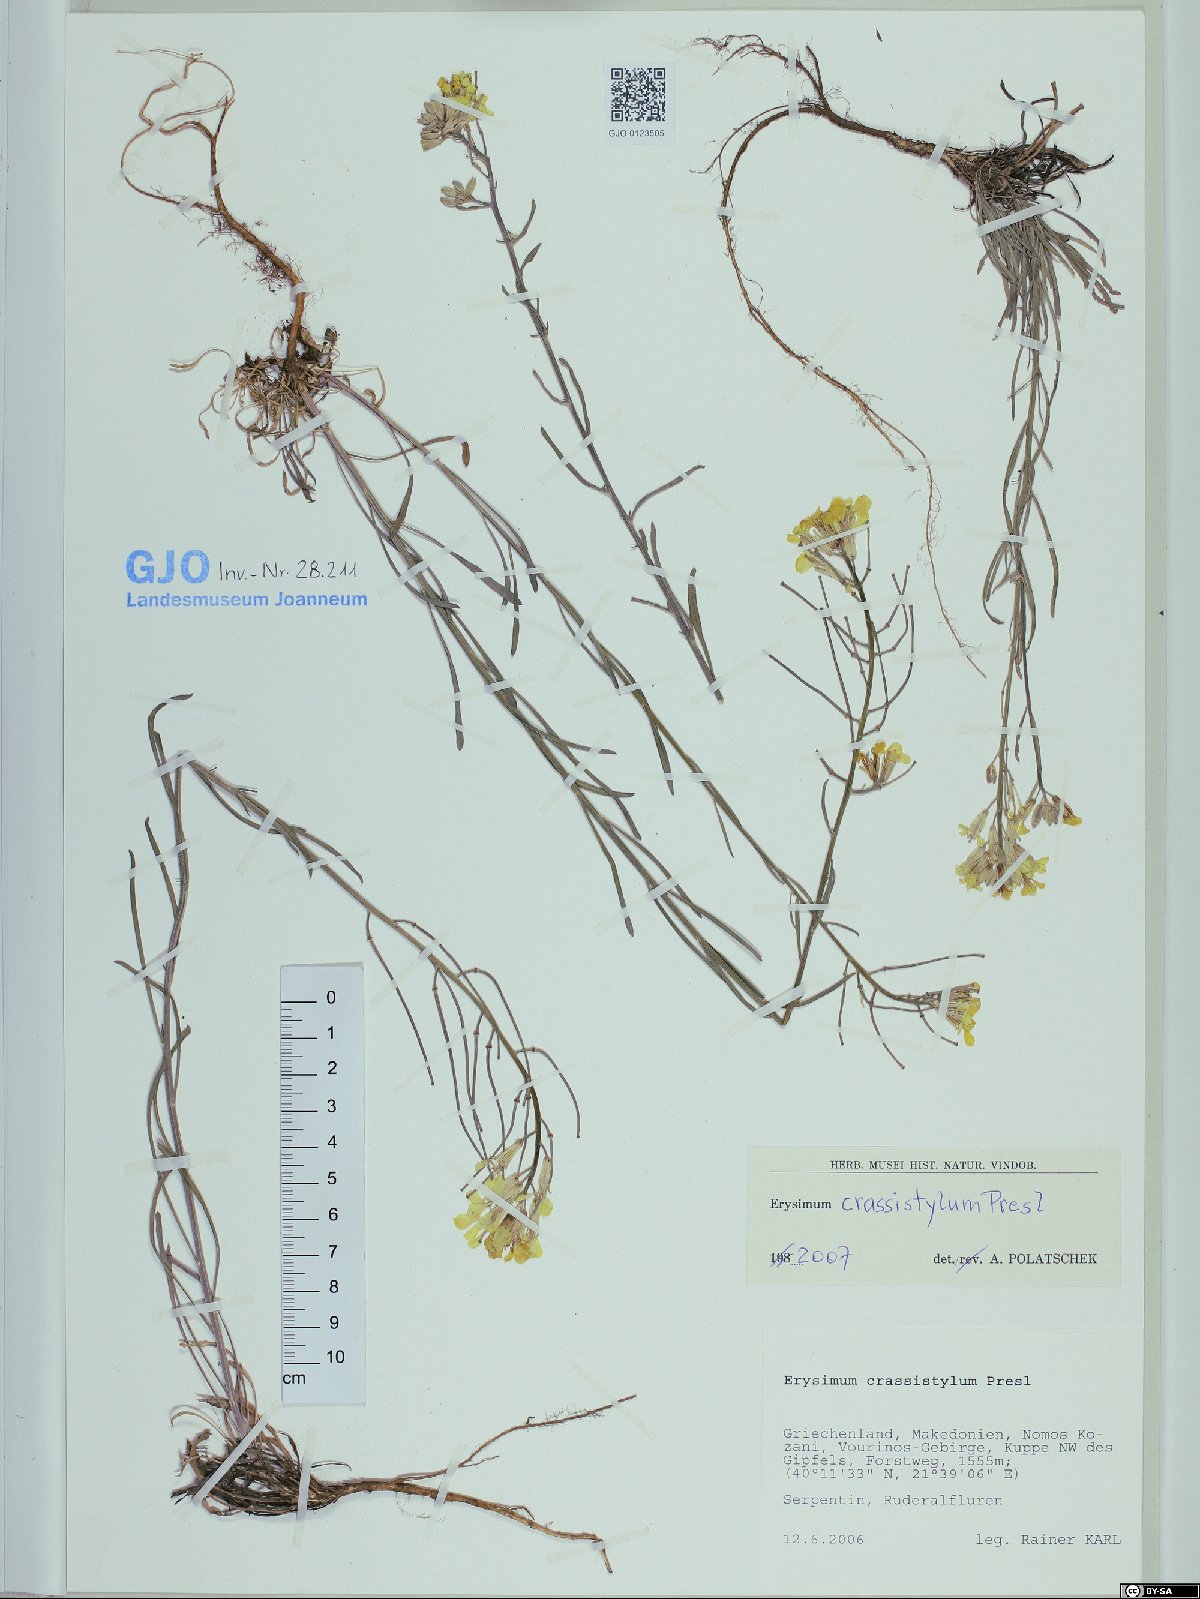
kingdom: Plantae
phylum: Tracheophyta
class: Magnoliopsida
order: Brassicales
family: Brassicaceae
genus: Erysimum
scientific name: Erysimum crassistylum
